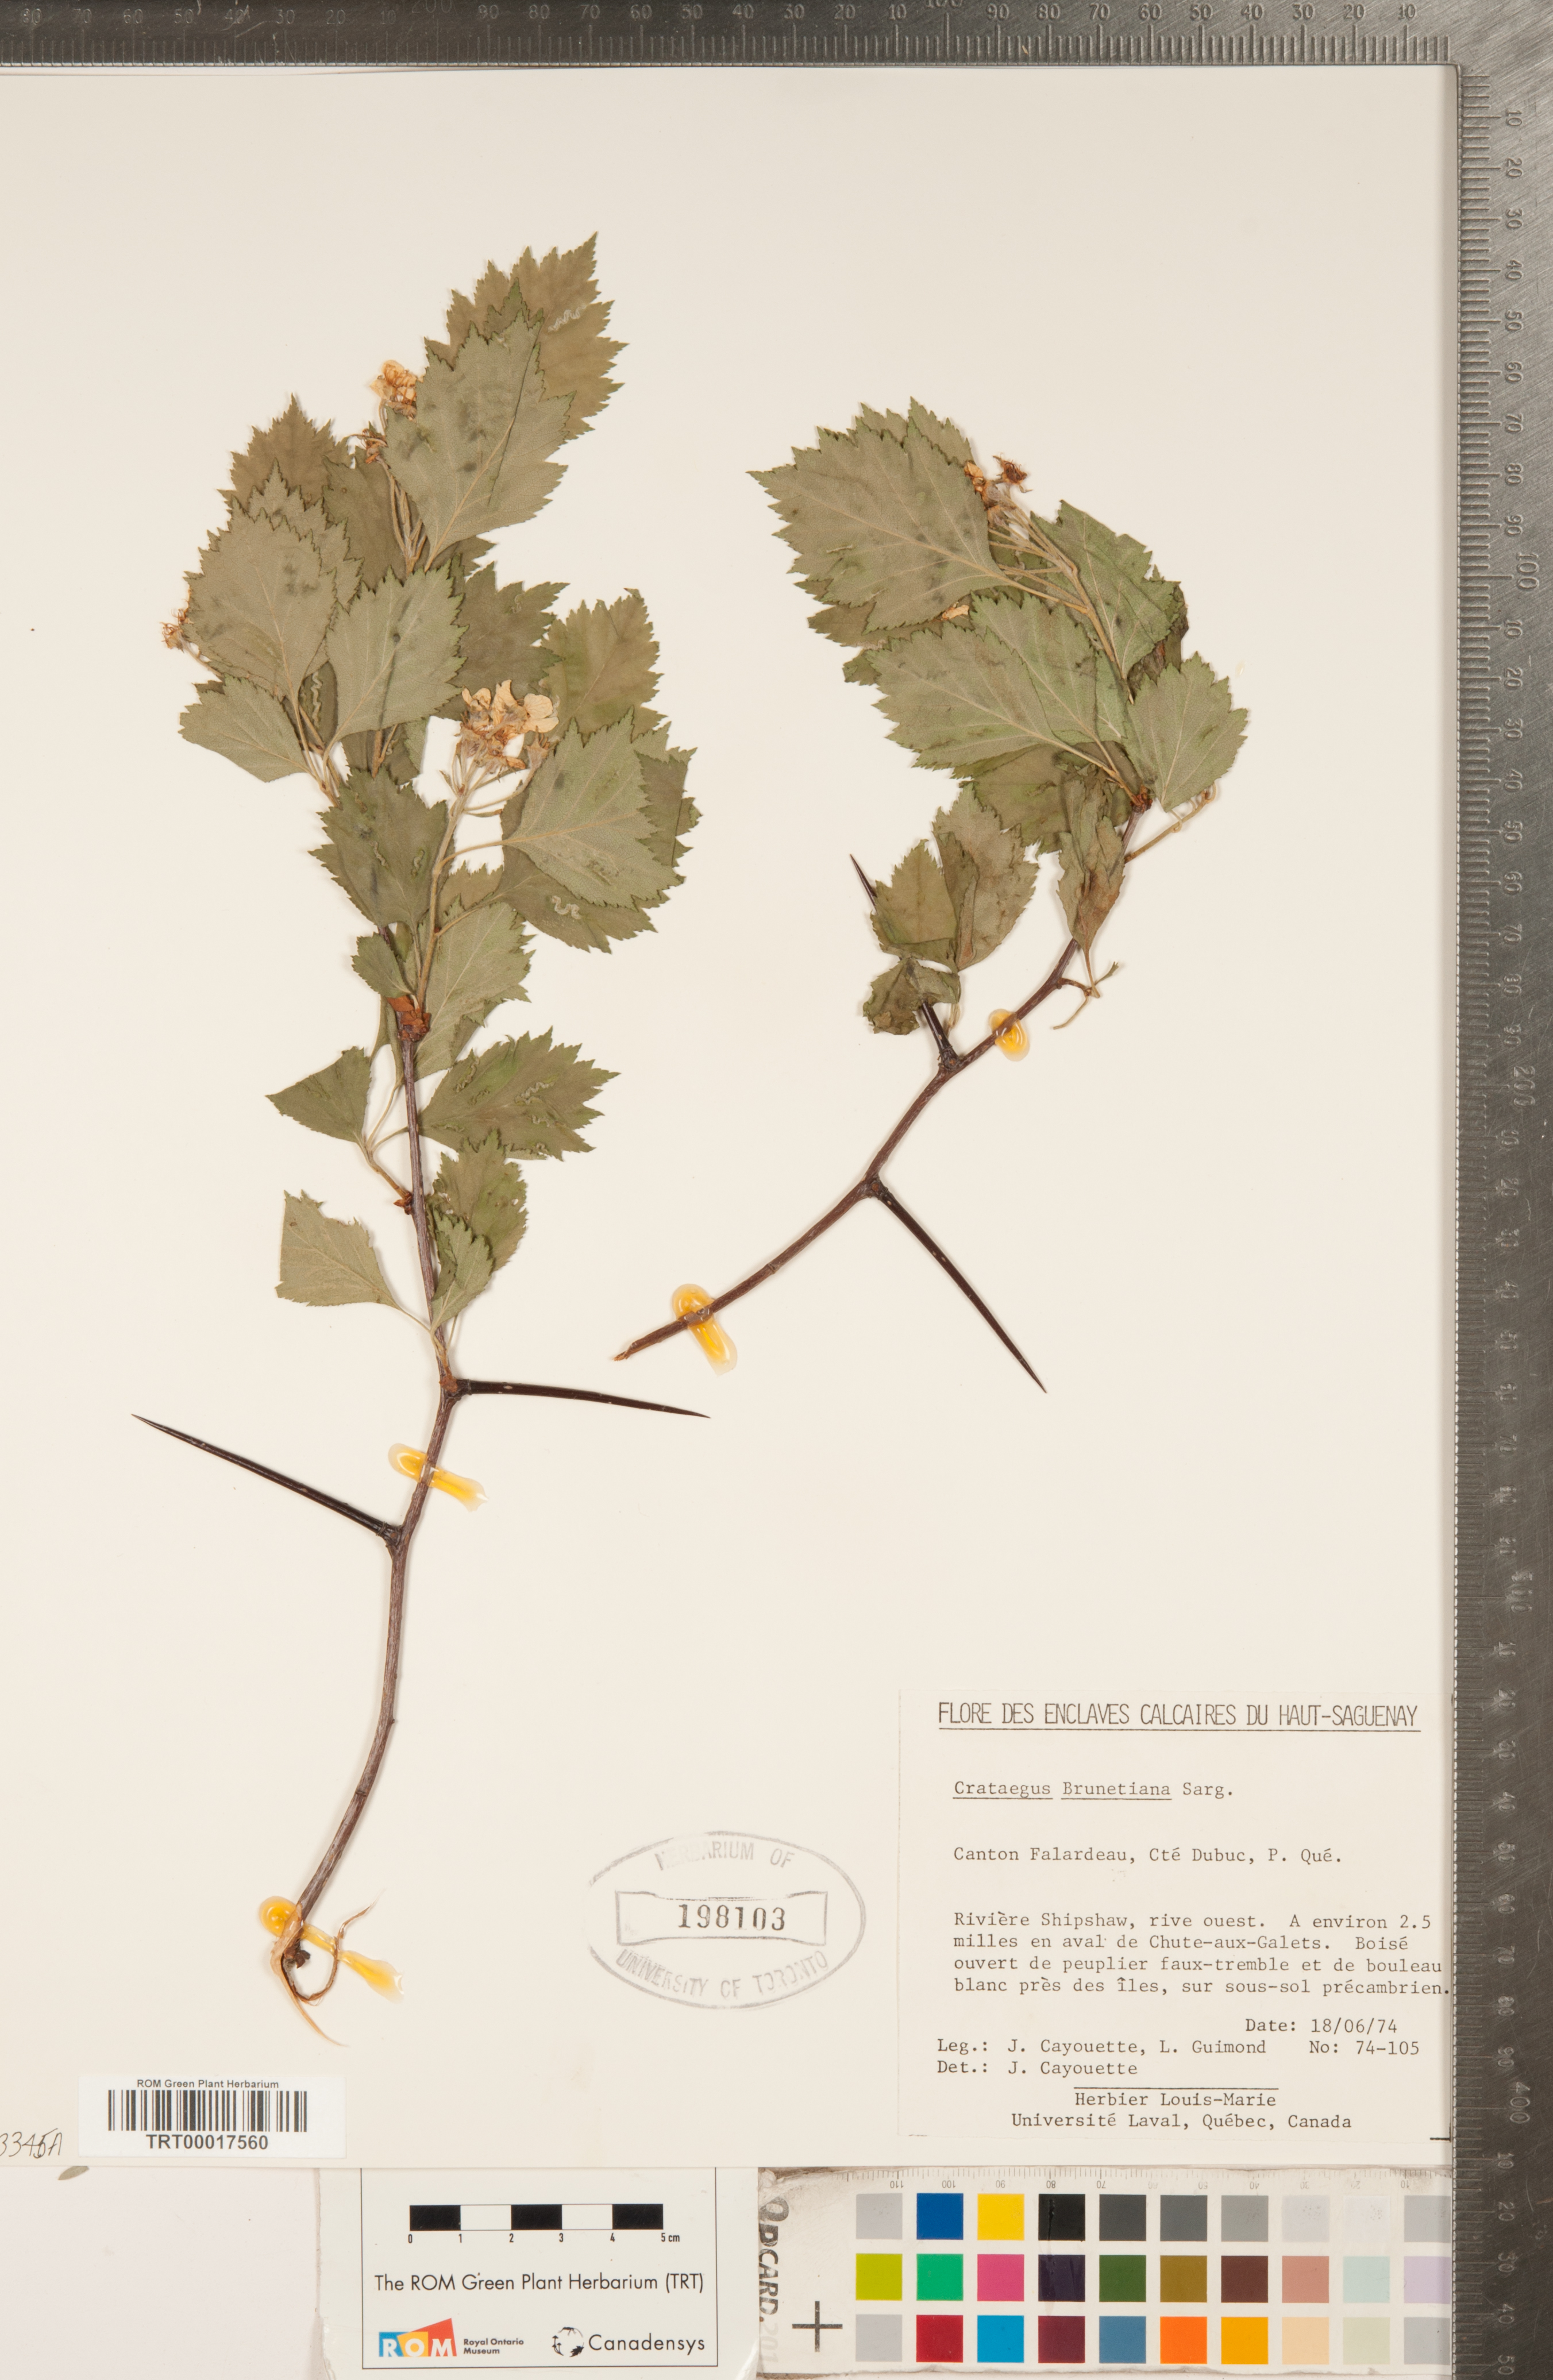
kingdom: Plantae
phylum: Tracheophyta
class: Magnoliopsida
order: Rosales
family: Rosaceae
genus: Crataegus
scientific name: Crataegus chrysocarpa
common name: Fire-berry hawthorn
